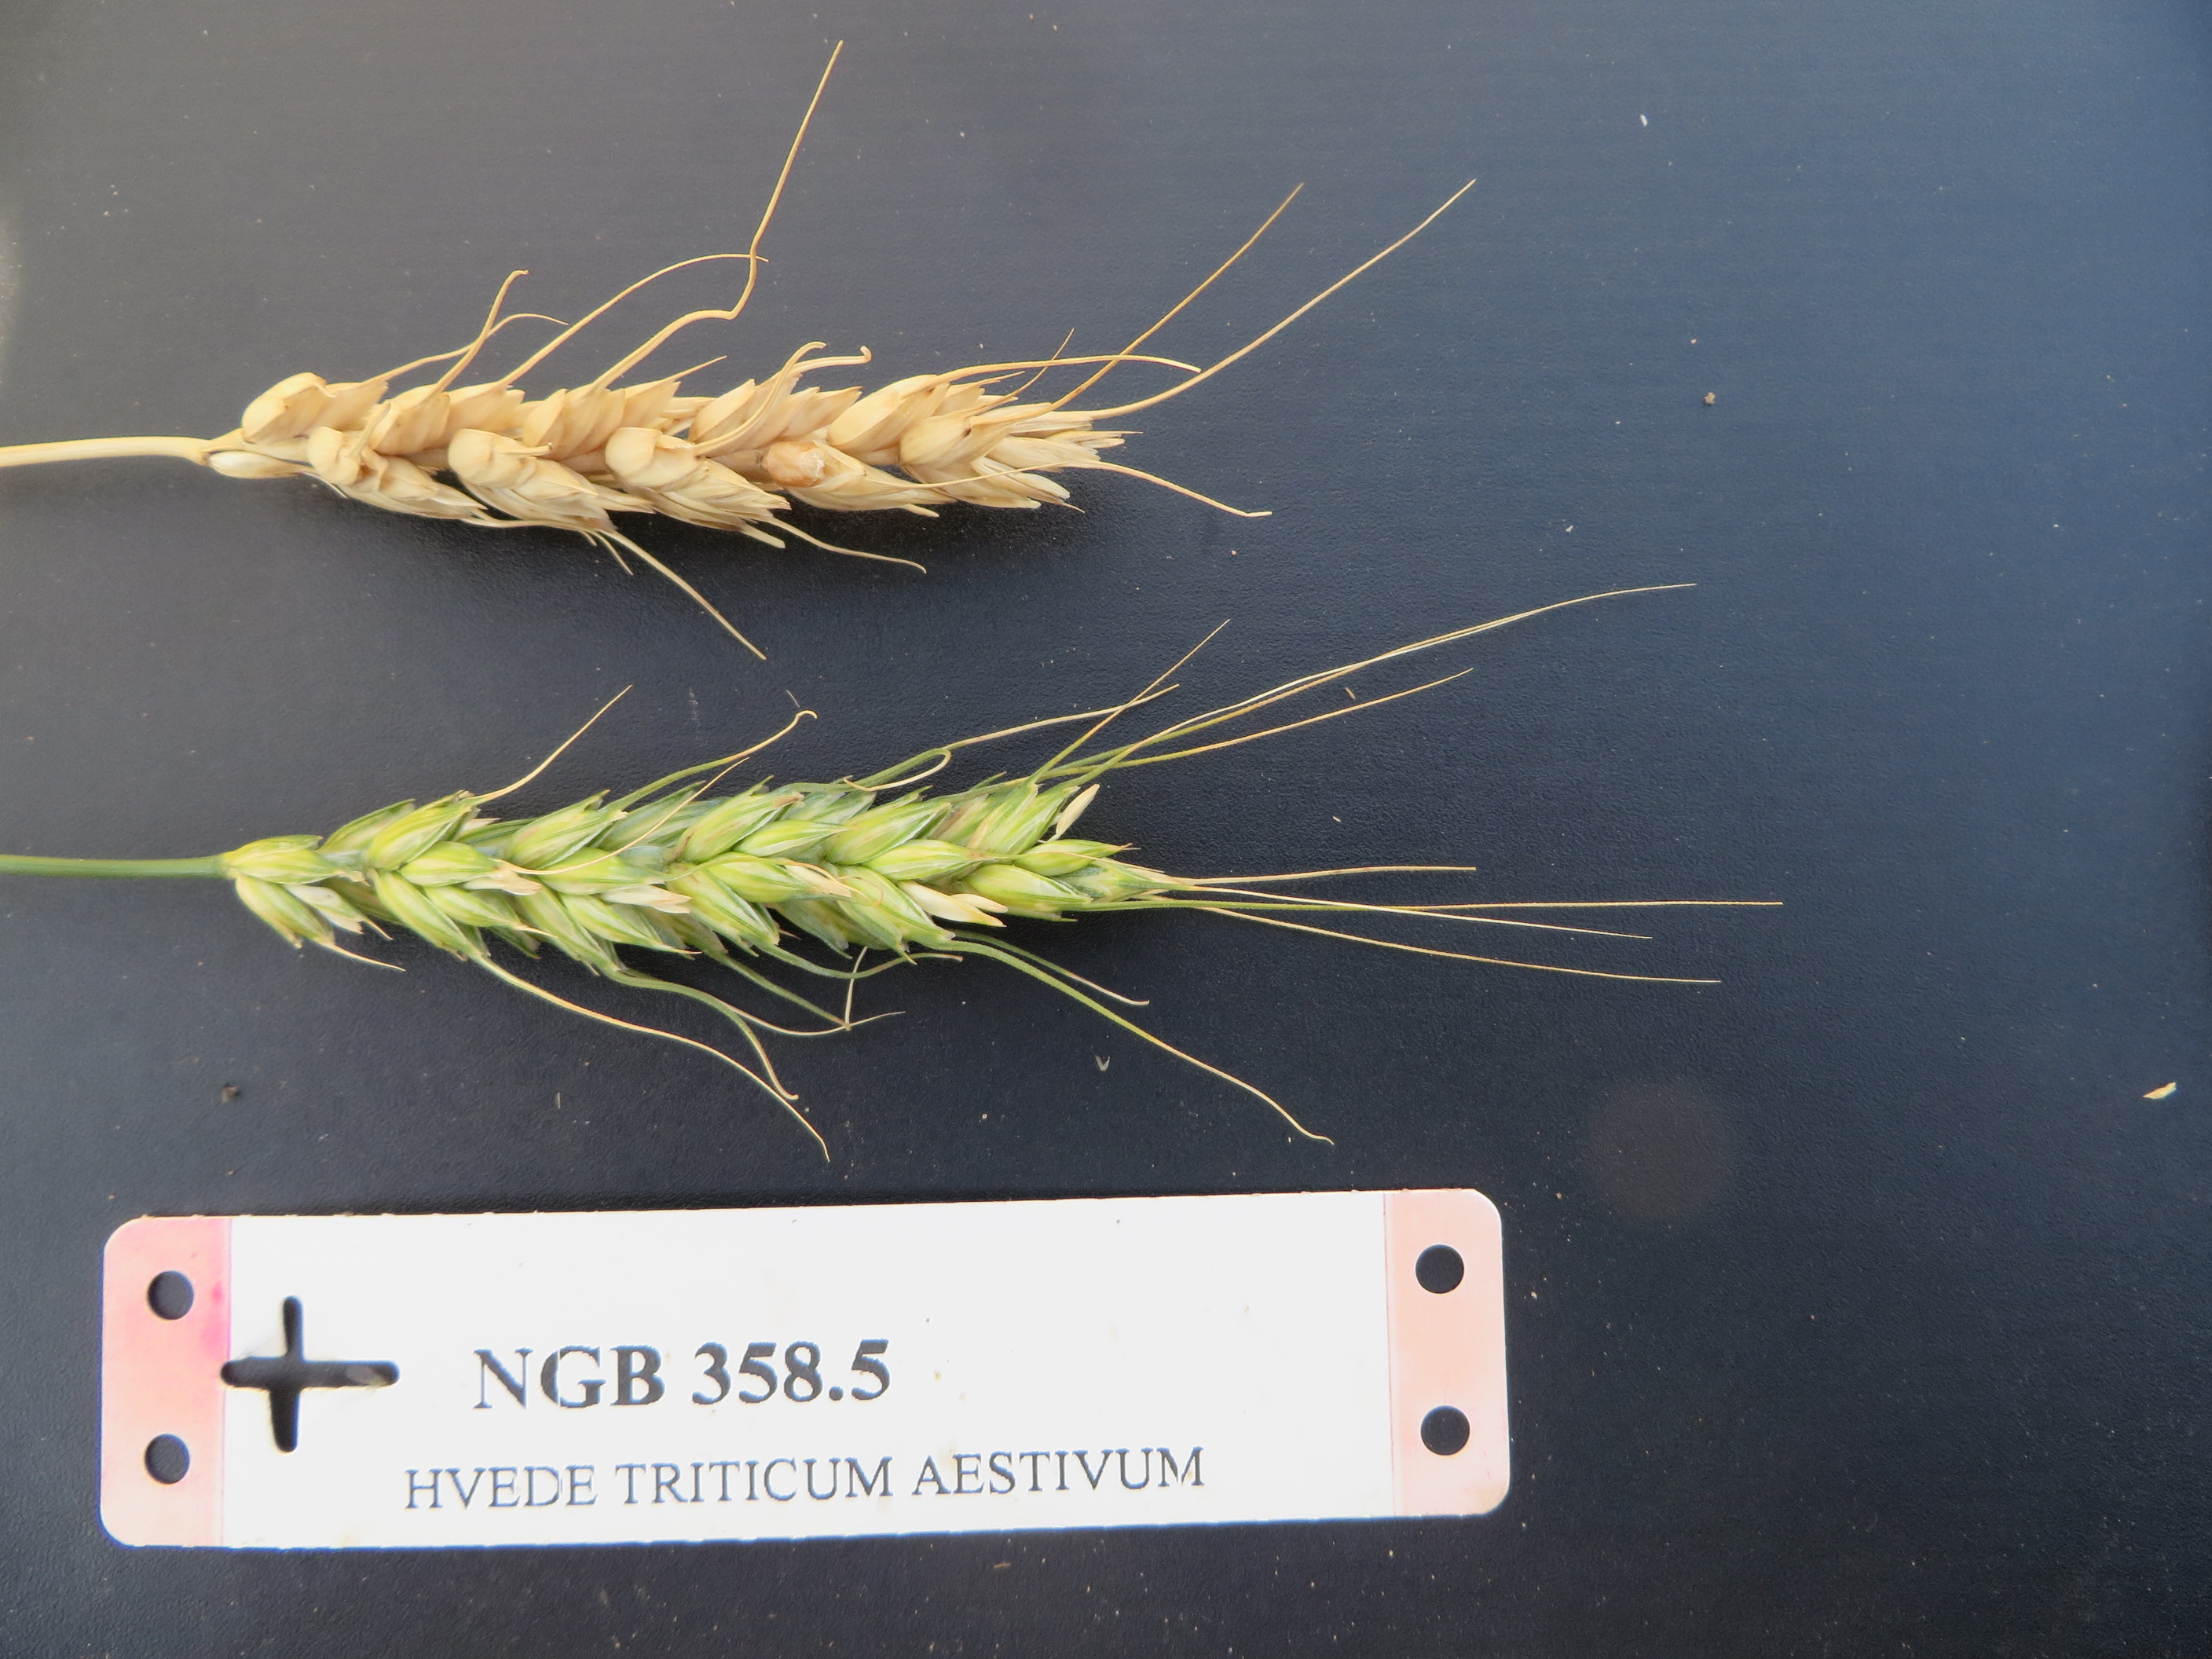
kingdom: Plantae
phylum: Tracheophyta
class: Liliopsida
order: Poales
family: Poaceae
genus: Triticum
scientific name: Triticum aestivum
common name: Common wheat
